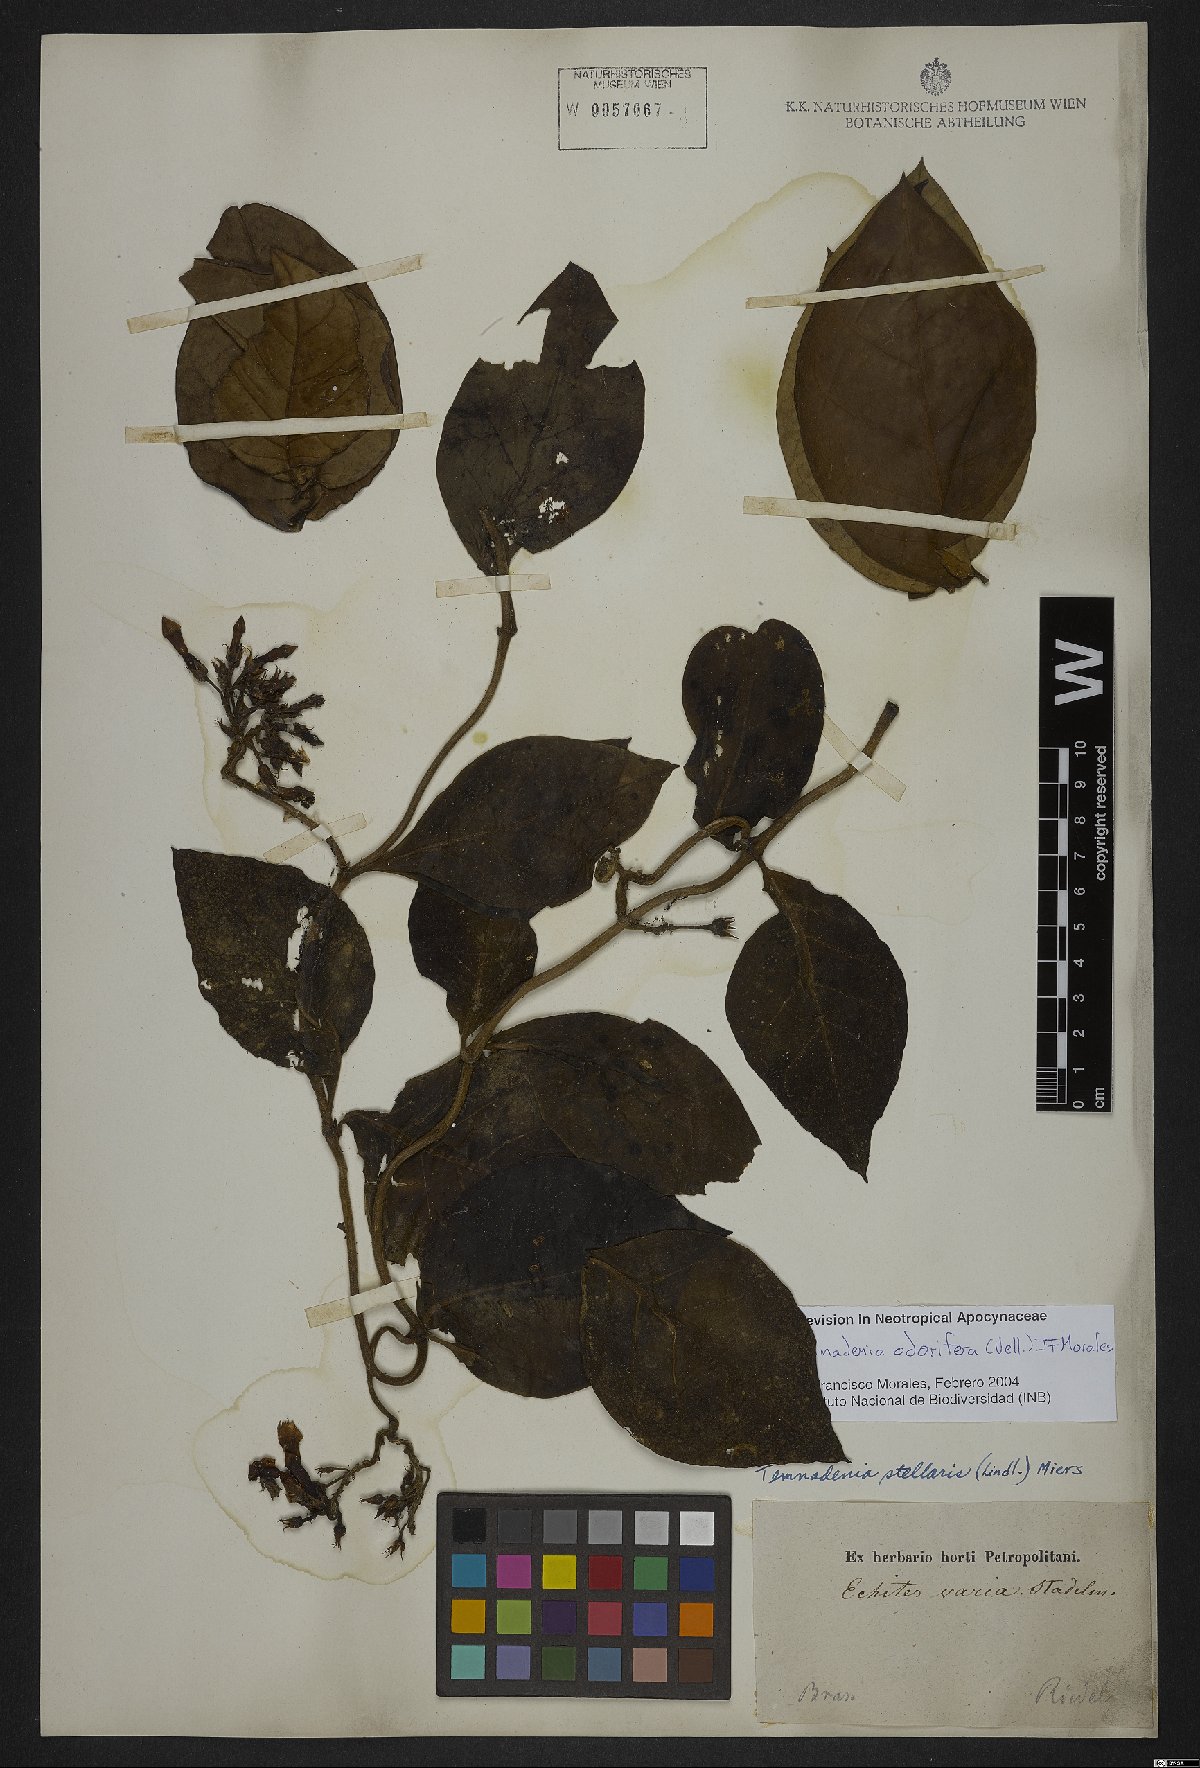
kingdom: Plantae
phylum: Tracheophyta
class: Magnoliopsida
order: Gentianales
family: Apocynaceae
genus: Temnadenia
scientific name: Temnadenia odorifera
